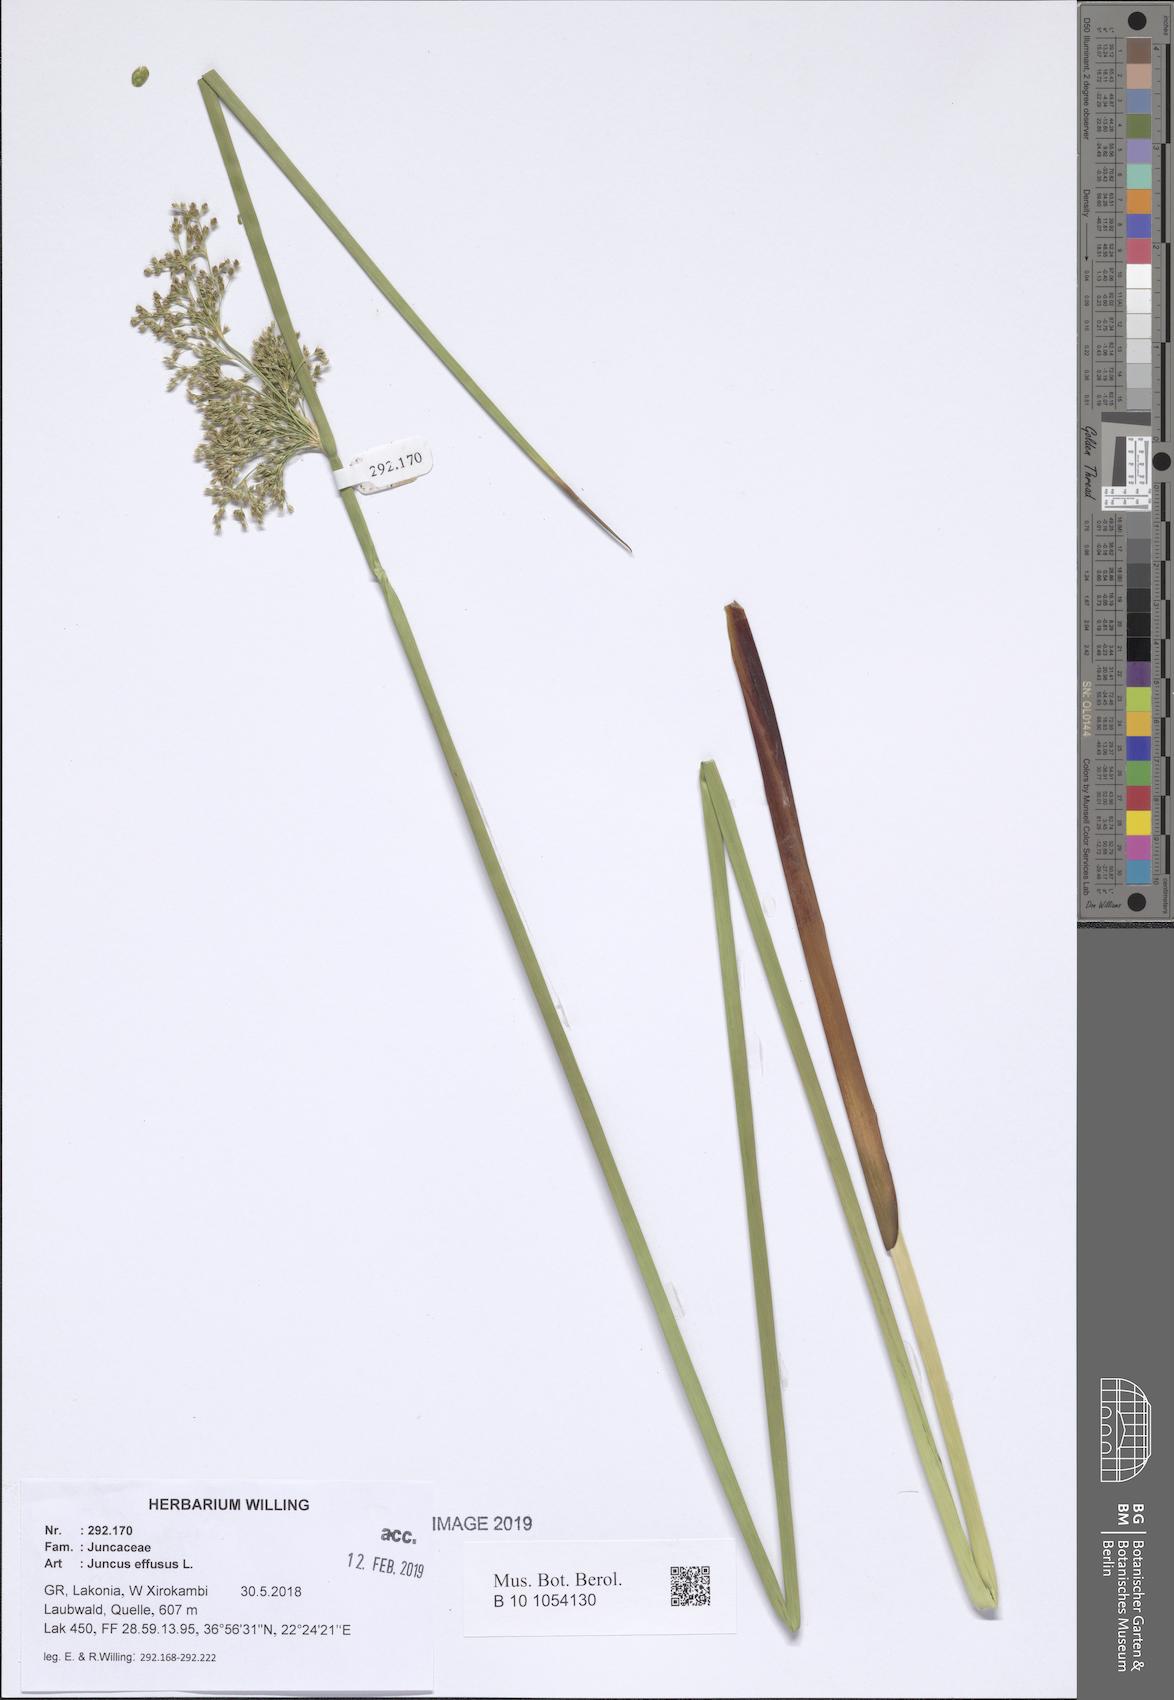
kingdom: Plantae
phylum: Tracheophyta
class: Liliopsida
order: Poales
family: Juncaceae
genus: Juncus
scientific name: Juncus effusus
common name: Soft rush
